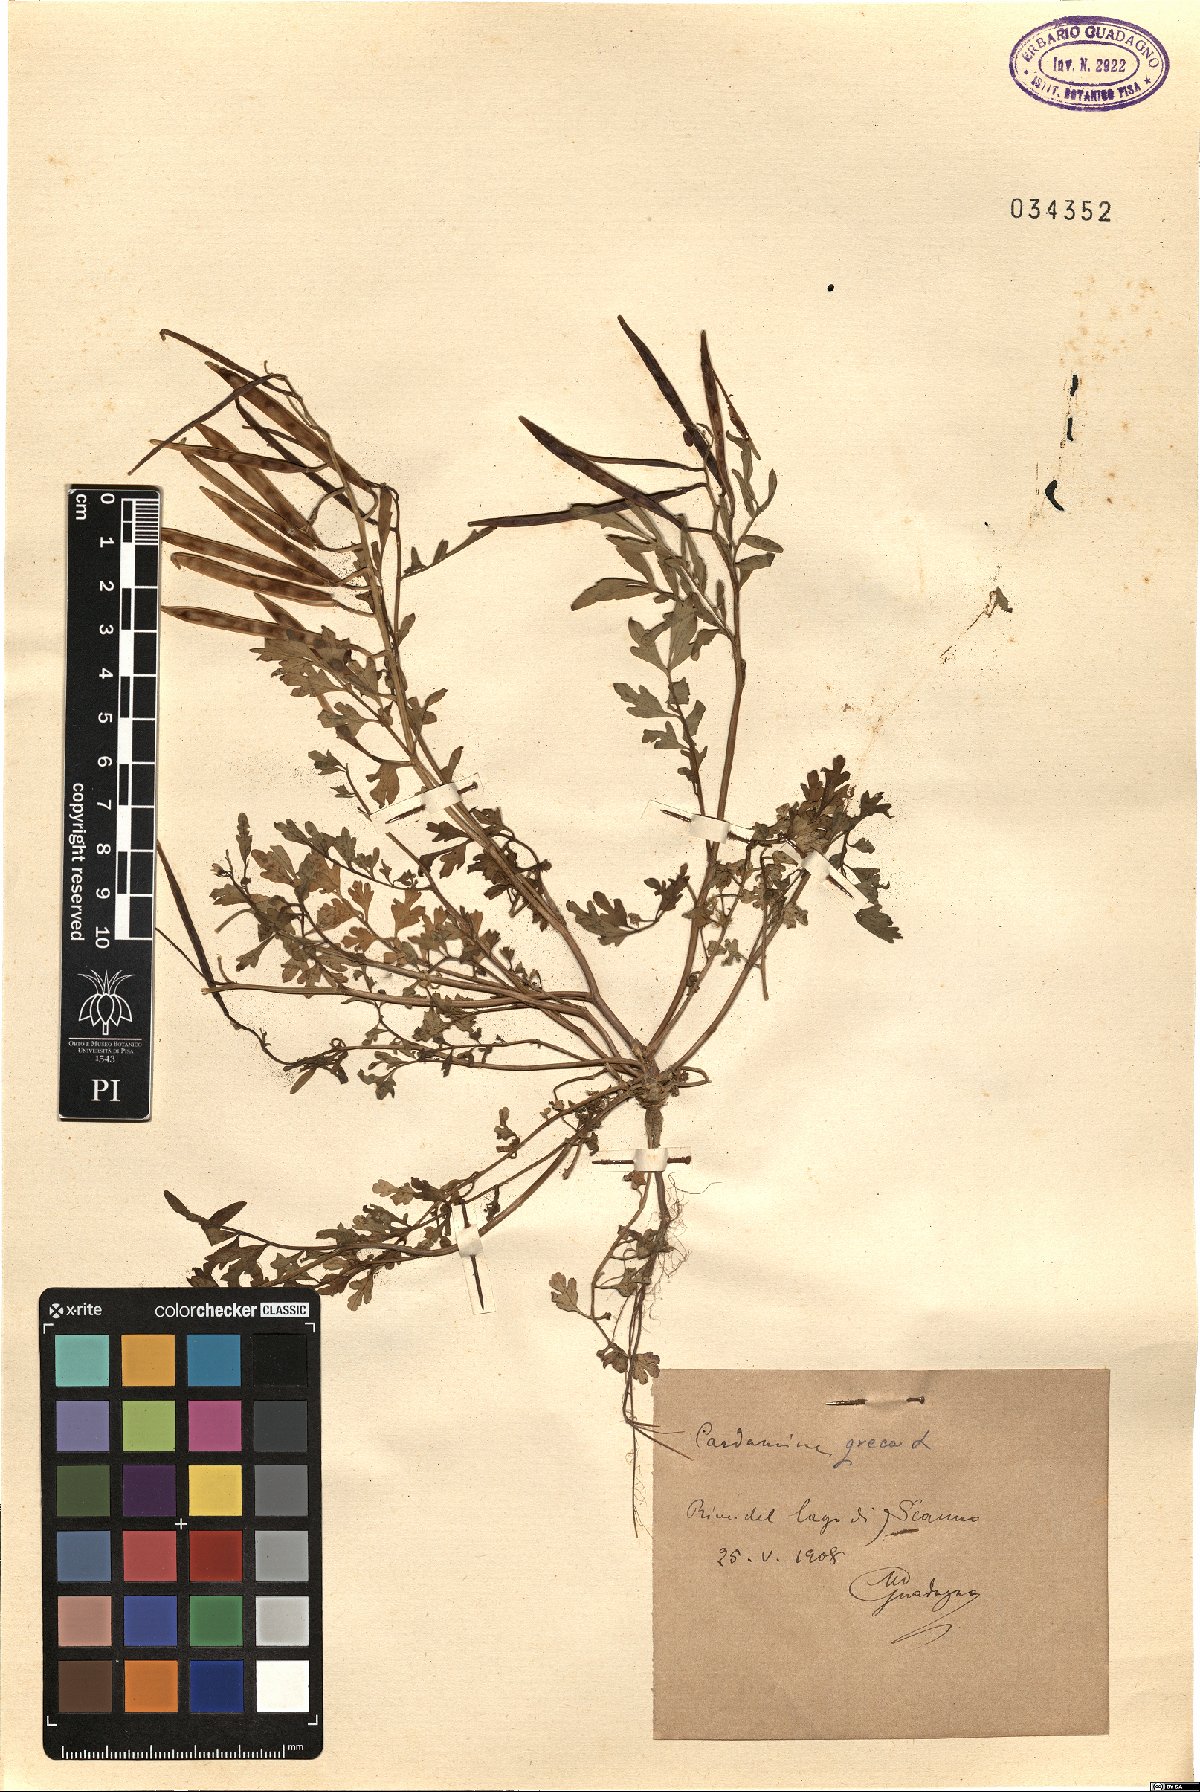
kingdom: Plantae
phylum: Tracheophyta
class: Magnoliopsida
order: Brassicales
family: Brassicaceae
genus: Cardamine
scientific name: Cardamine graeca
